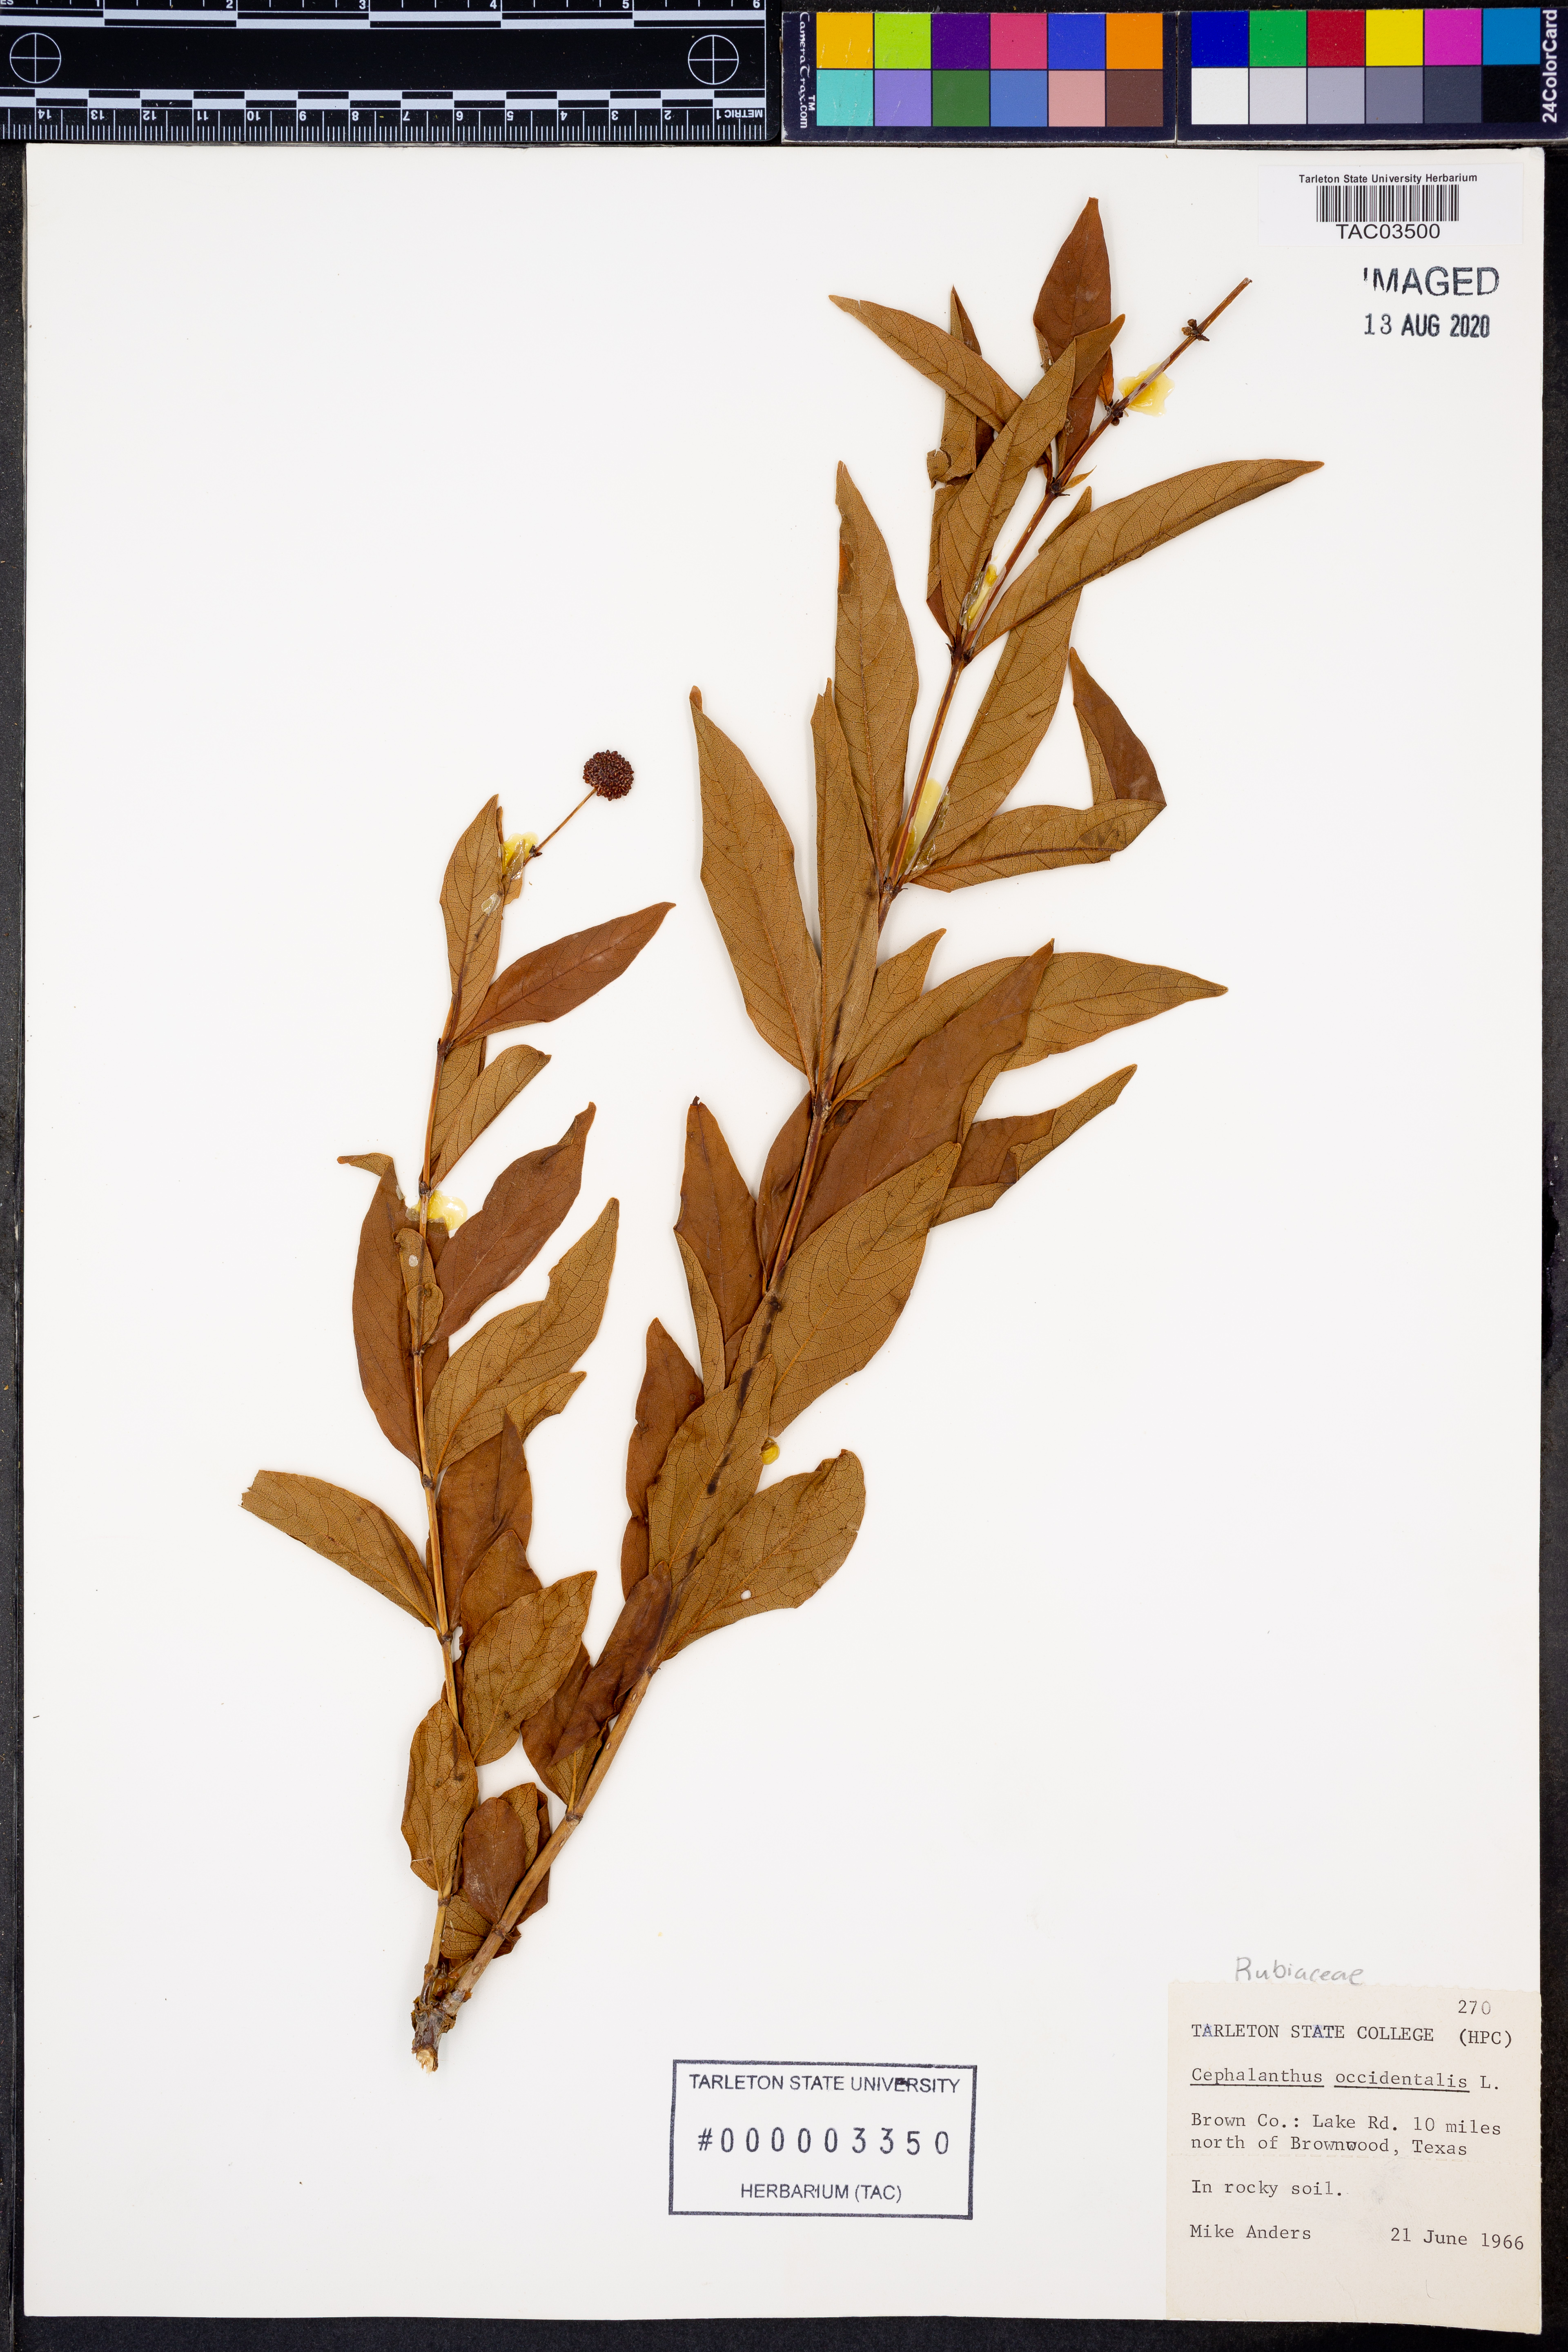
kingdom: Plantae
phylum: Tracheophyta
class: Magnoliopsida
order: Gentianales
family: Rubiaceae
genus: Cephalanthus
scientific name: Cephalanthus occidentalis
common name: Button-willow
